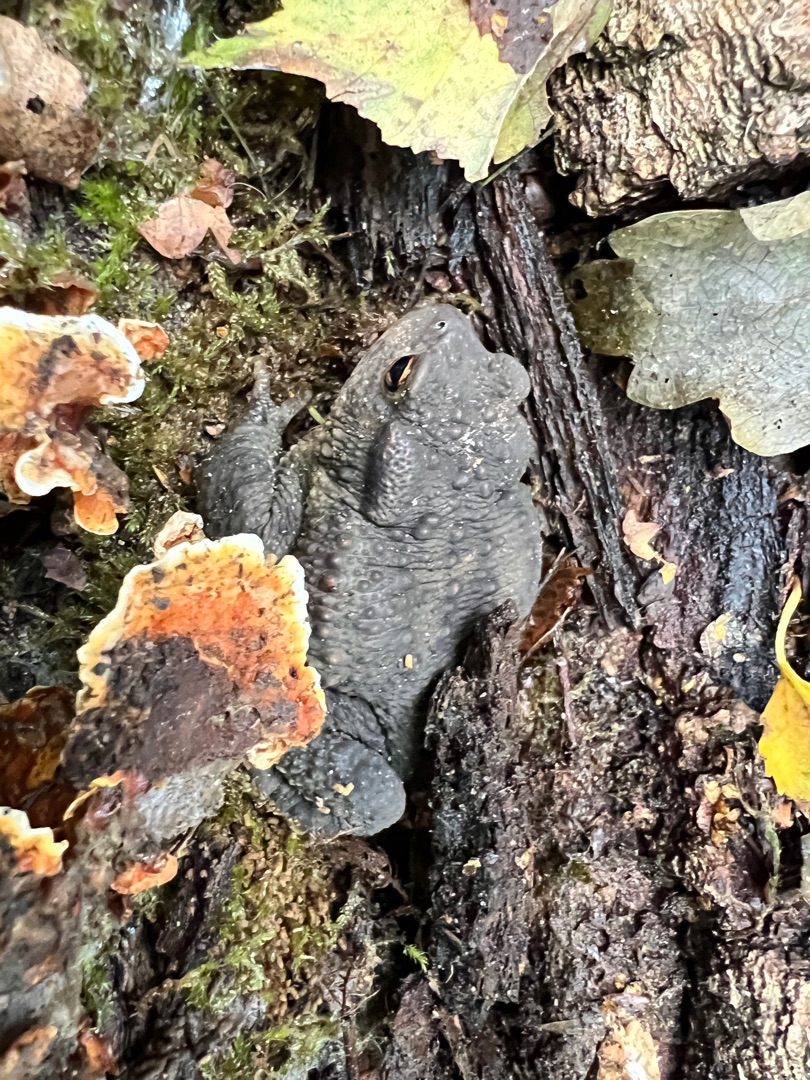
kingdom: Animalia
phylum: Chordata
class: Amphibia
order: Anura
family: Bufonidae
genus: Bufo
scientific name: Bufo bufo
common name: Skrubtudse
